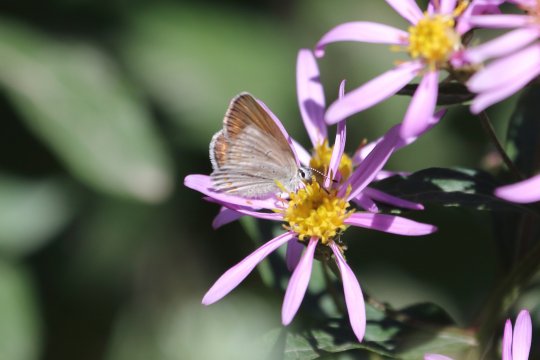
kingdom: Animalia
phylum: Arthropoda
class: Insecta
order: Lepidoptera
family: Lycaenidae
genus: Lycaeides
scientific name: Lycaeides anna
